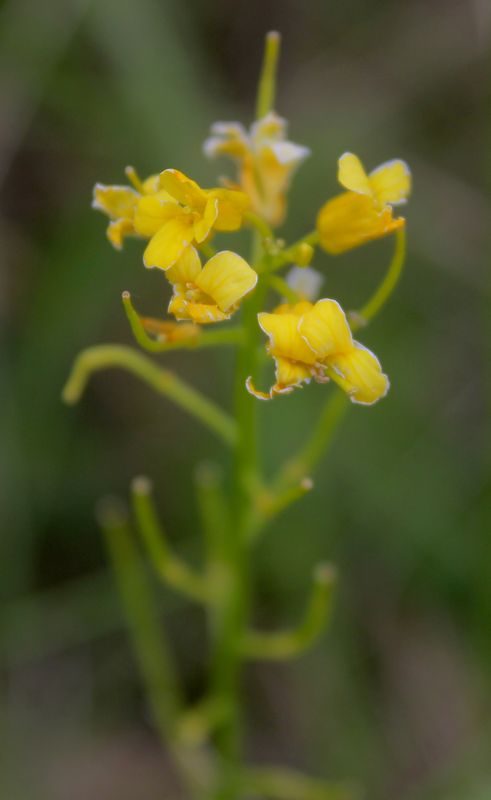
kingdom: Plantae
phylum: Tracheophyta
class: Magnoliopsida
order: Brassicales
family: Brassicaceae
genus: Barbarea
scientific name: Barbarea vulgaris
